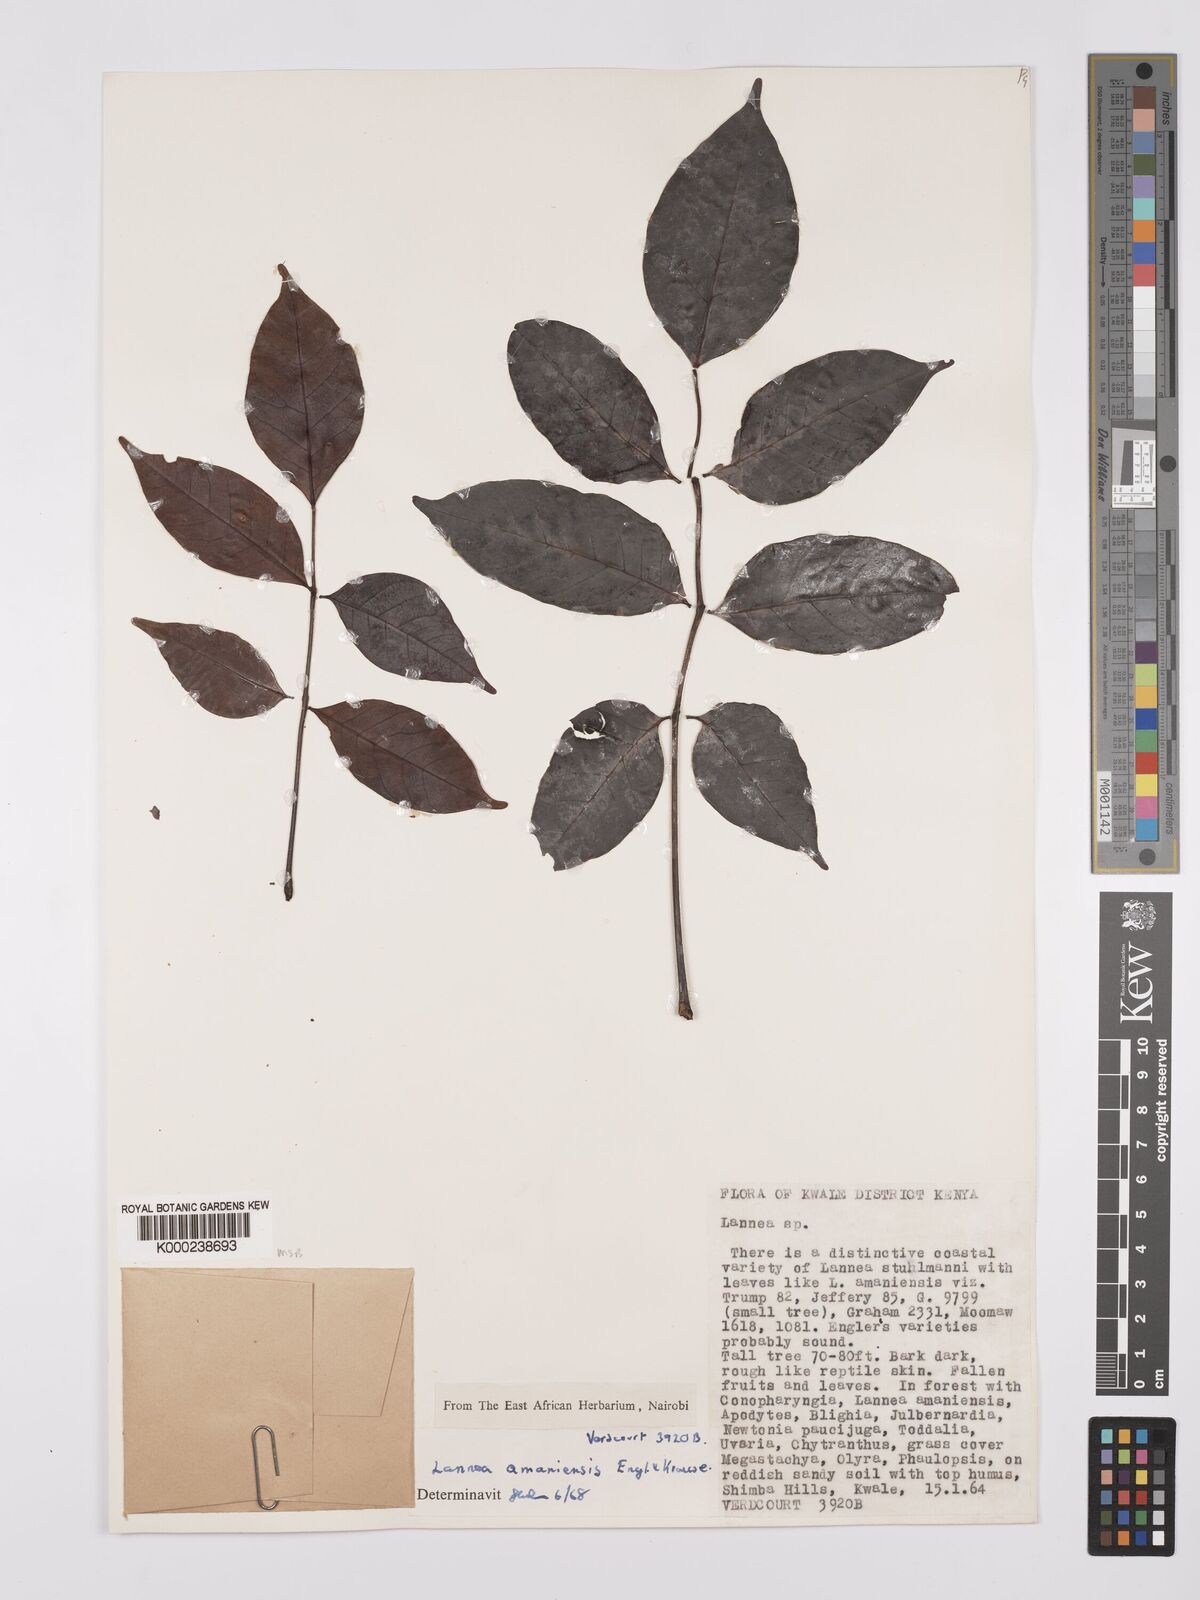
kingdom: Plantae
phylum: Tracheophyta
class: Magnoliopsida
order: Sapindales
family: Anacardiaceae
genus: Lannea
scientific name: Lannea schweinfurthii
